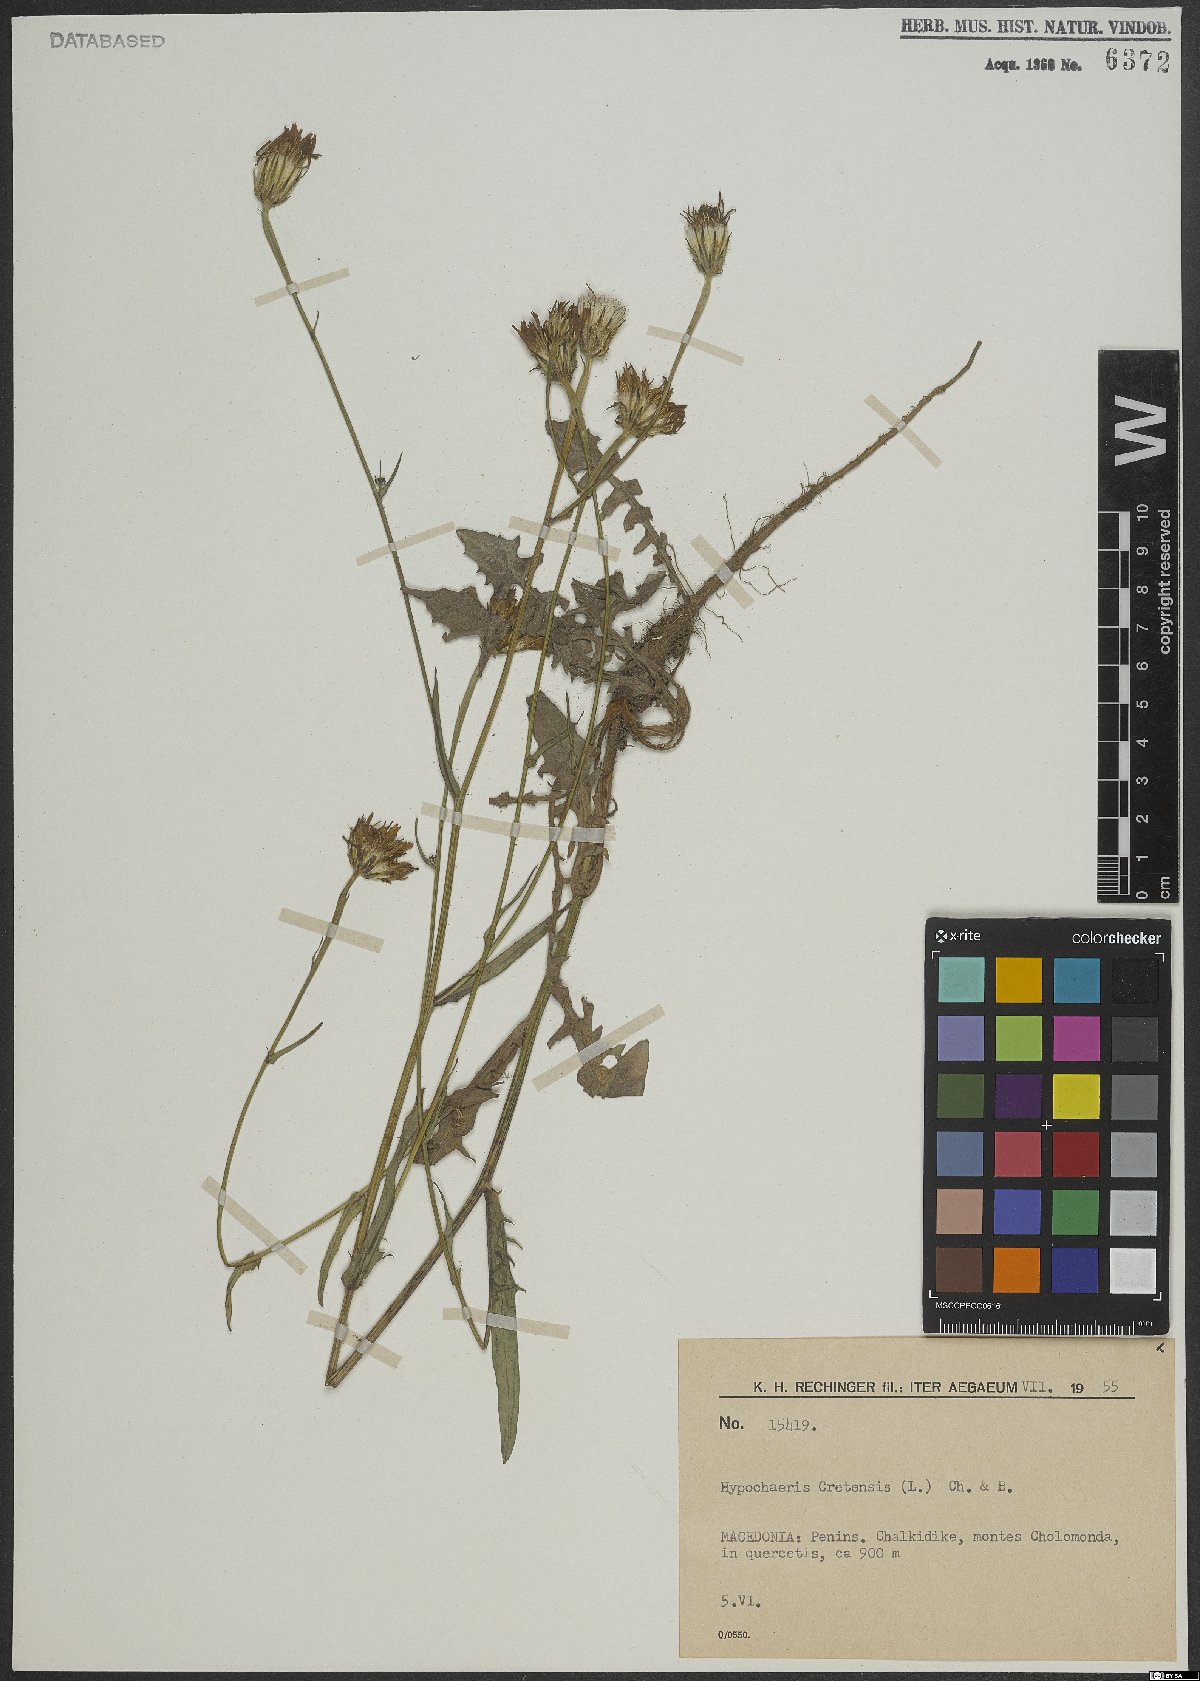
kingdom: Plantae
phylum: Tracheophyta
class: Magnoliopsida
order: Asterales
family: Asteraceae
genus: Hypochaeris
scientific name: Hypochaeris cretensis
